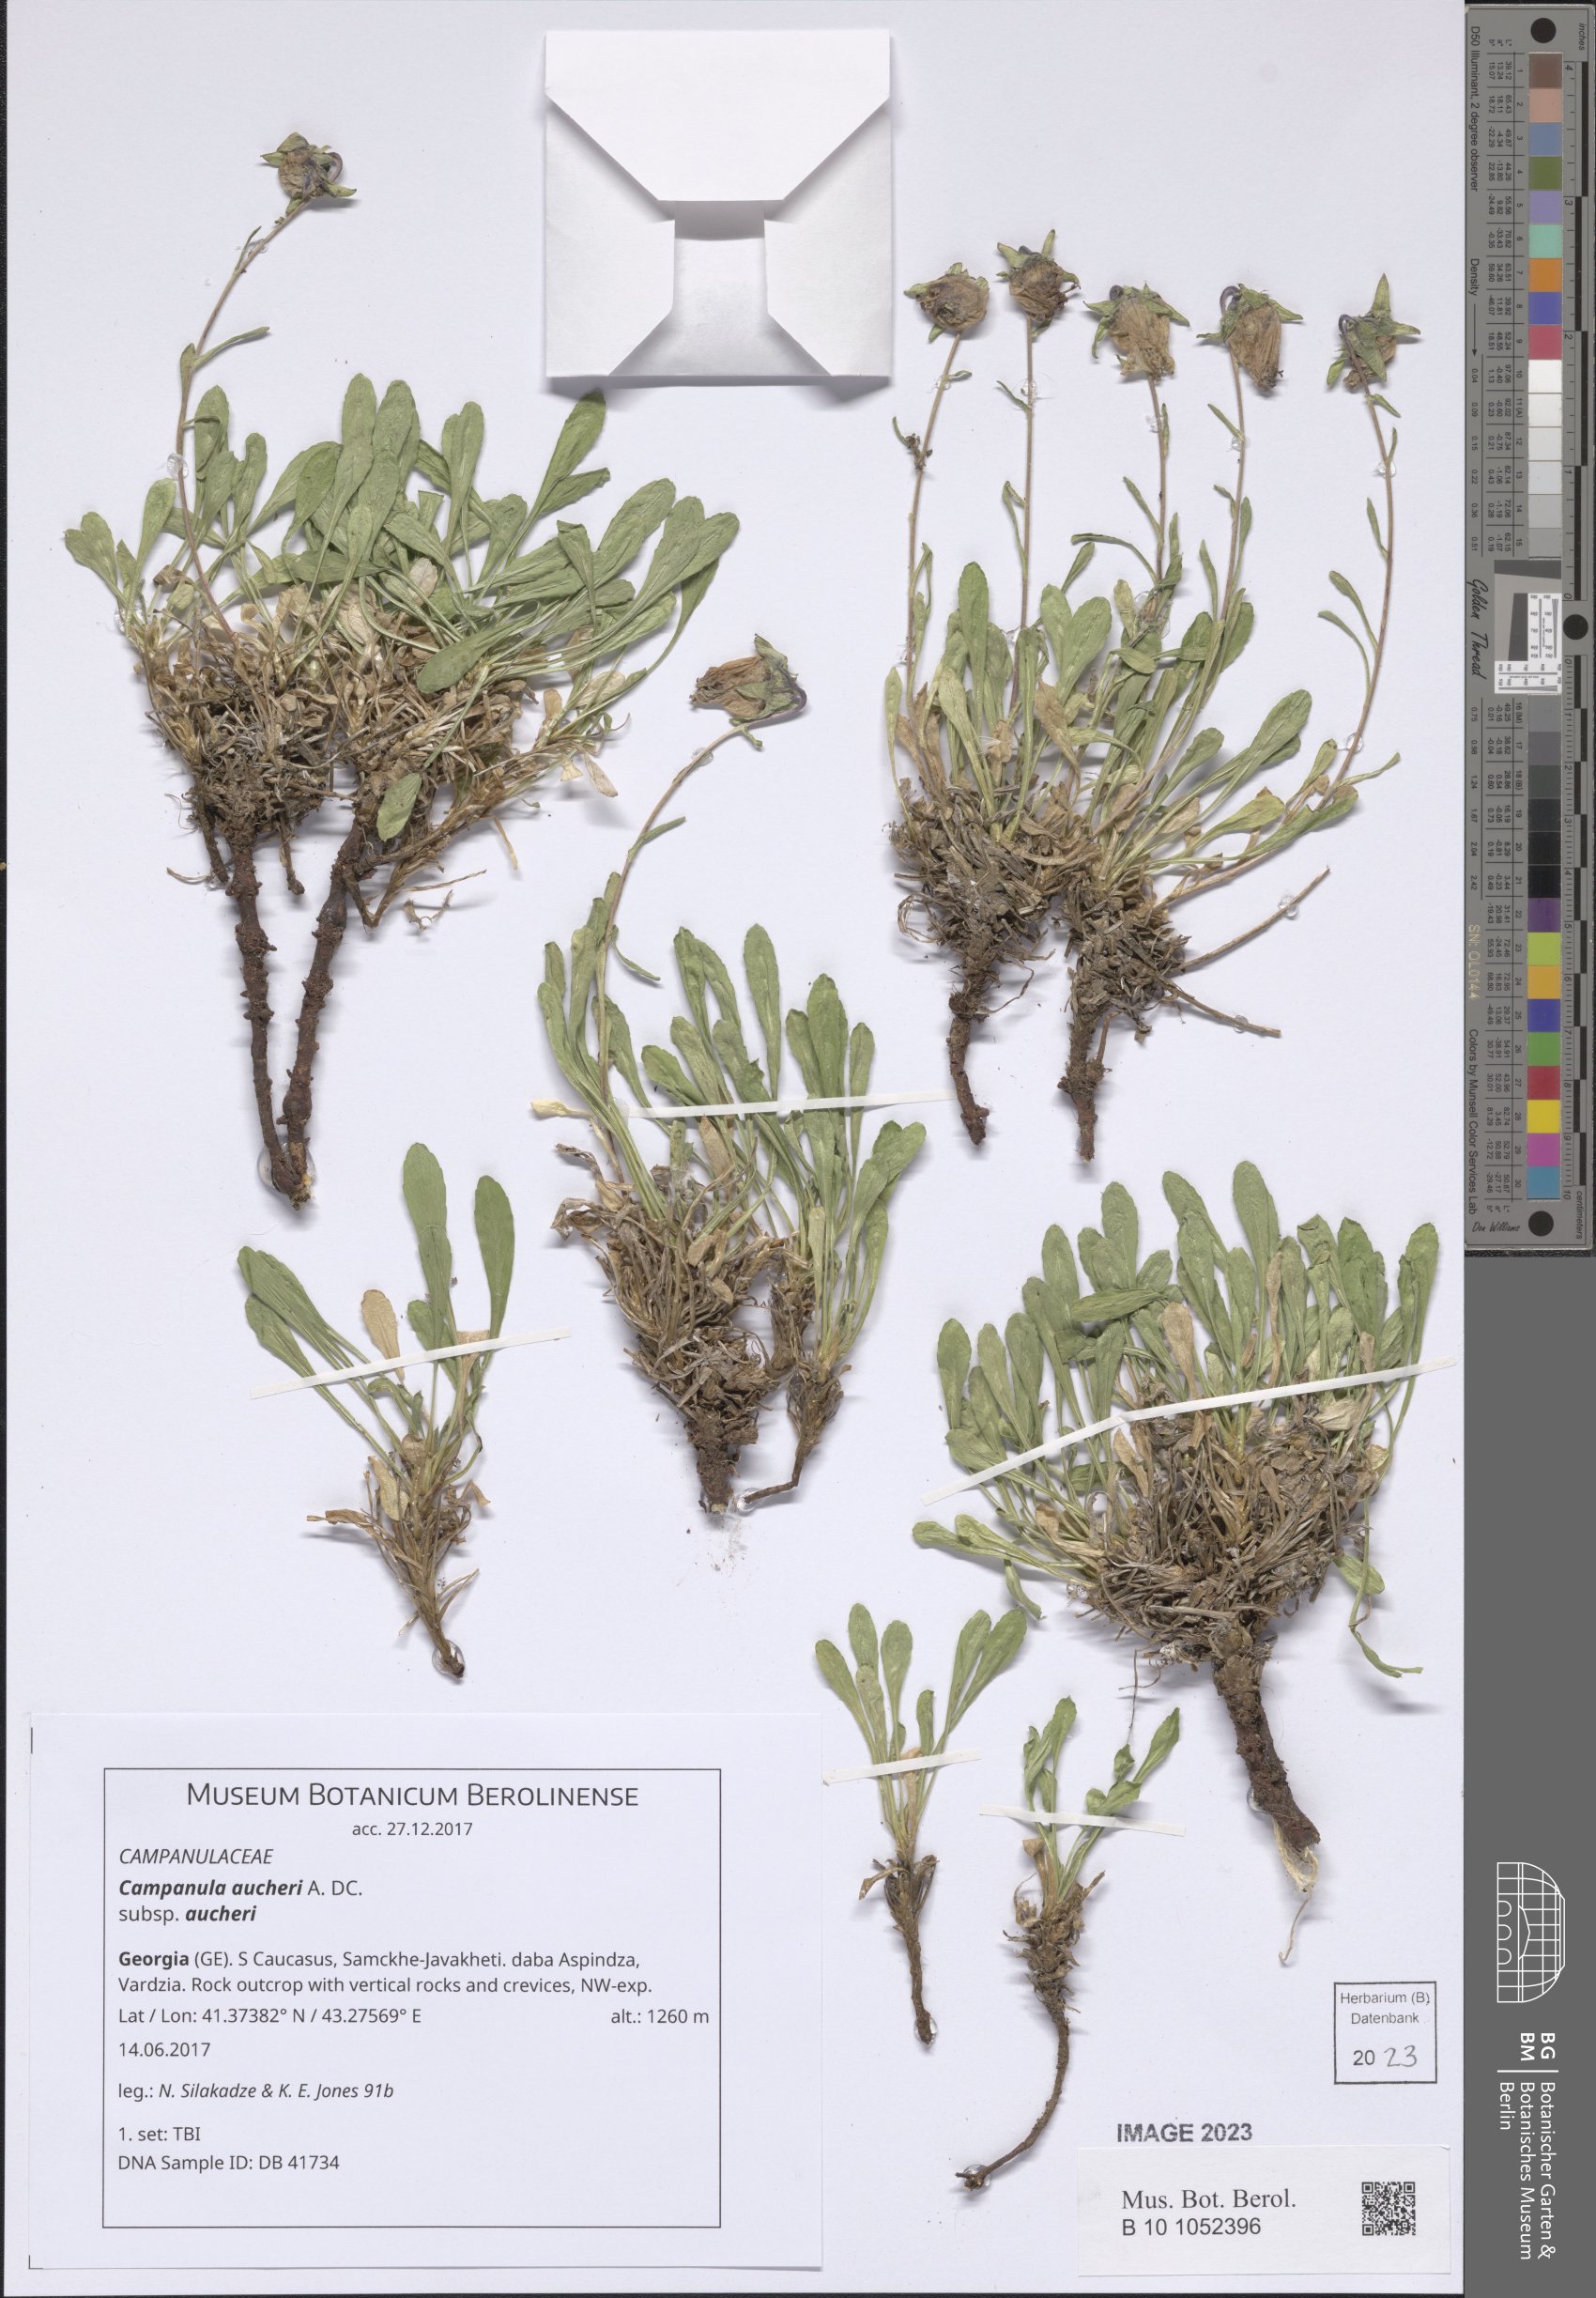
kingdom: Plantae
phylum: Tracheophyta
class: Magnoliopsida
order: Asterales
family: Campanulaceae
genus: Campanula
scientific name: Campanula saxifraga
